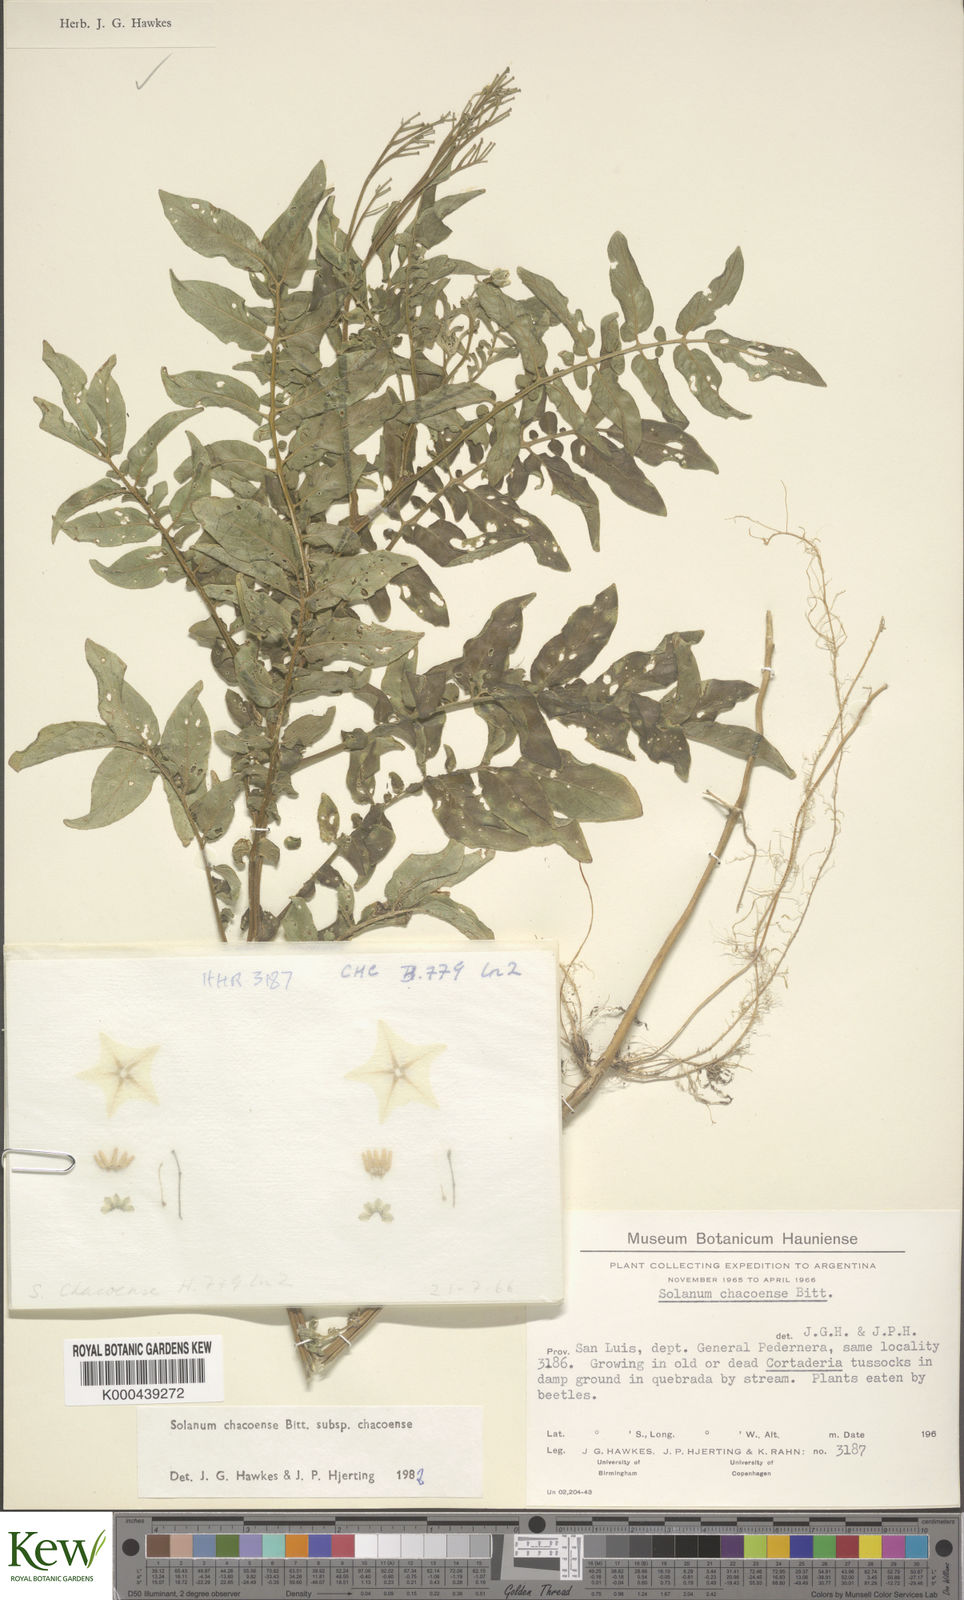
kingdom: Plantae
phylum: Tracheophyta
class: Magnoliopsida
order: Solanales
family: Solanaceae
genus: Solanum
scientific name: Solanum chacoense
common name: Chaco potato
